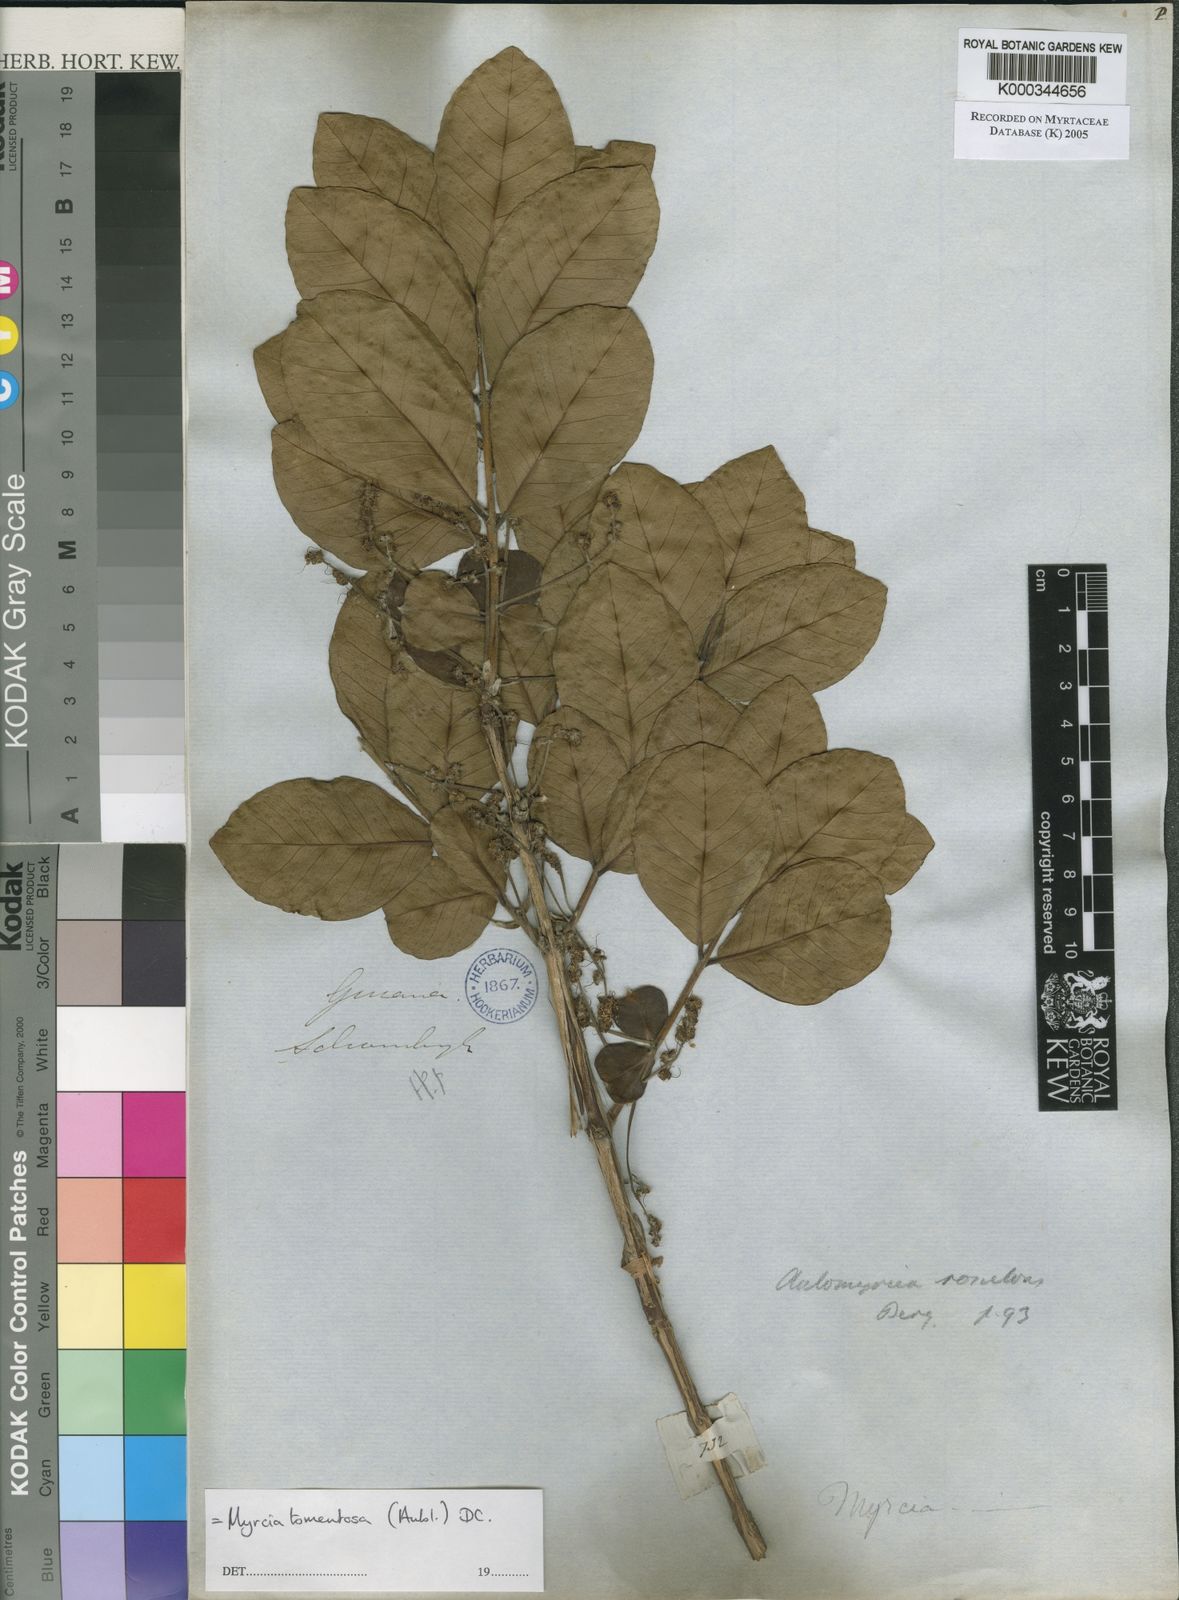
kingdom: Plantae
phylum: Tracheophyta
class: Magnoliopsida
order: Myrtales
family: Myrtaceae
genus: Myrcia
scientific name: Myrcia tomentosa
